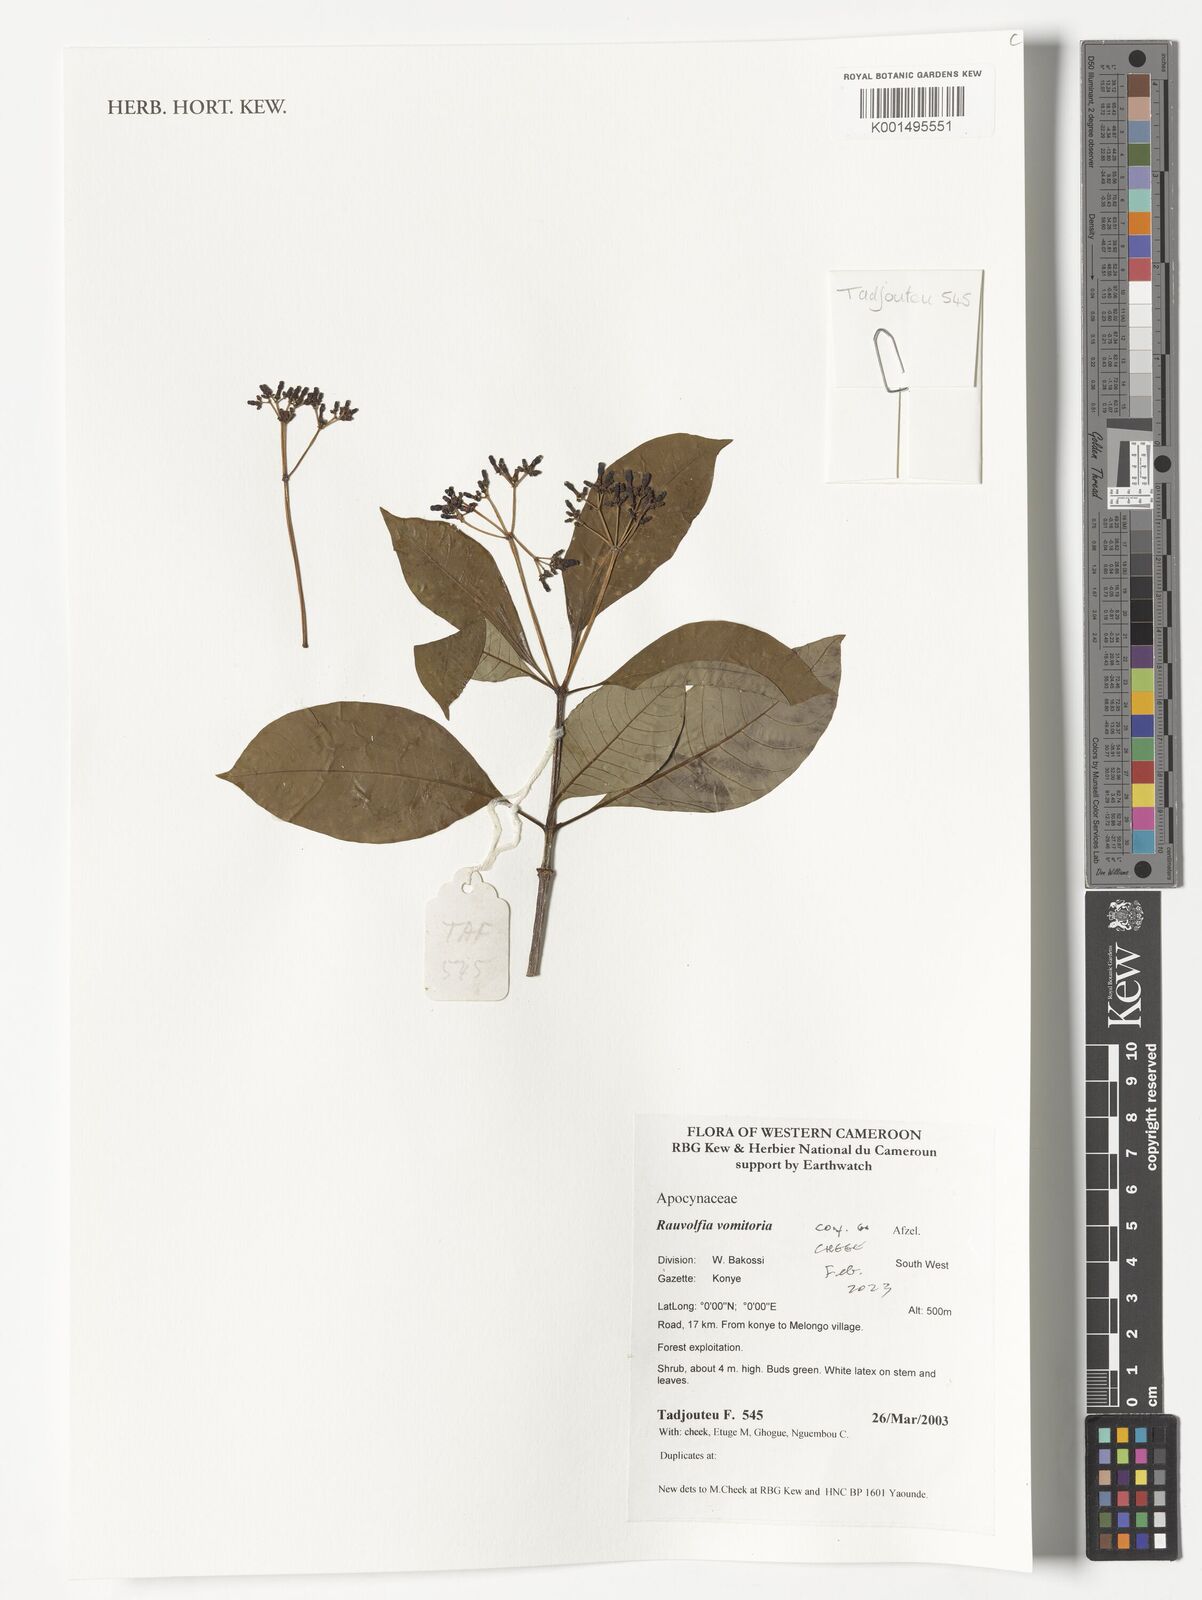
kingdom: Plantae
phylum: Tracheophyta
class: Magnoliopsida
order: Gentianales
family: Apocynaceae
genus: Rauvolfia
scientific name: Rauvolfia vomitoria
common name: Poison devil's-pepper
